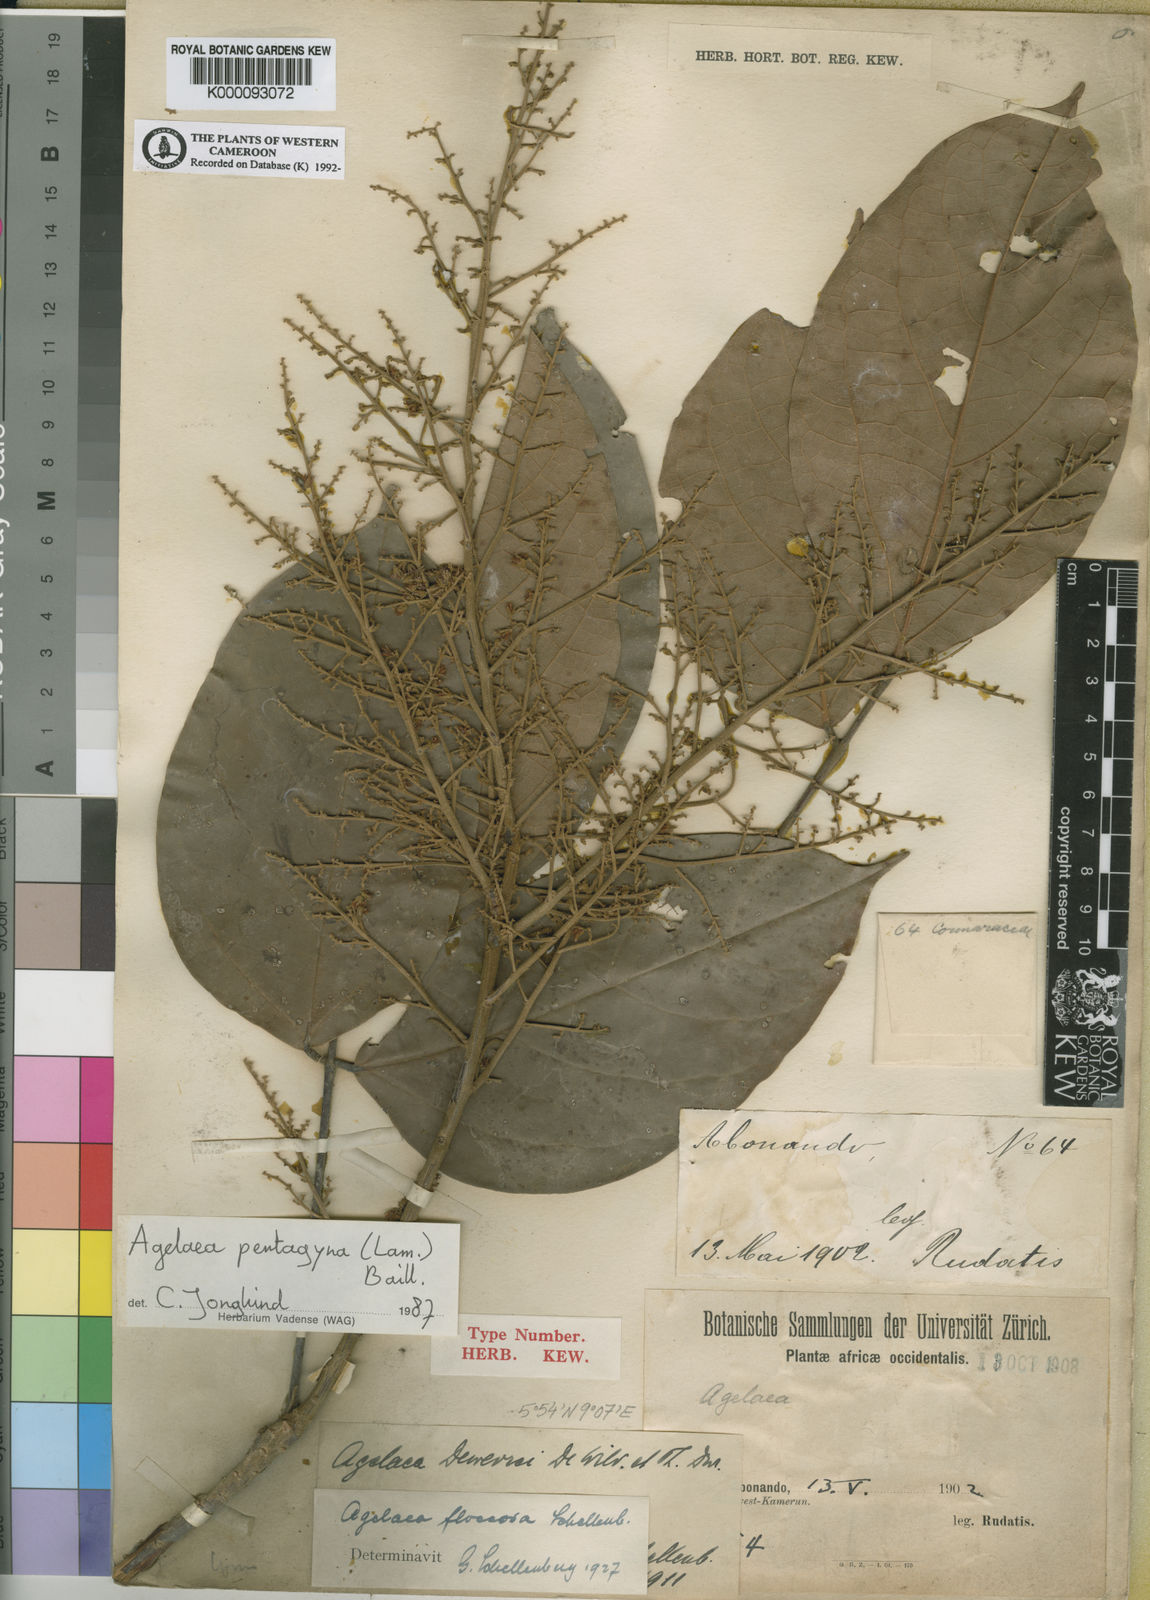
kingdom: Plantae
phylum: Tracheophyta
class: Magnoliopsida
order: Oxalidales
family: Connaraceae
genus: Agelaea
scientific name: Agelaea pentagyna
